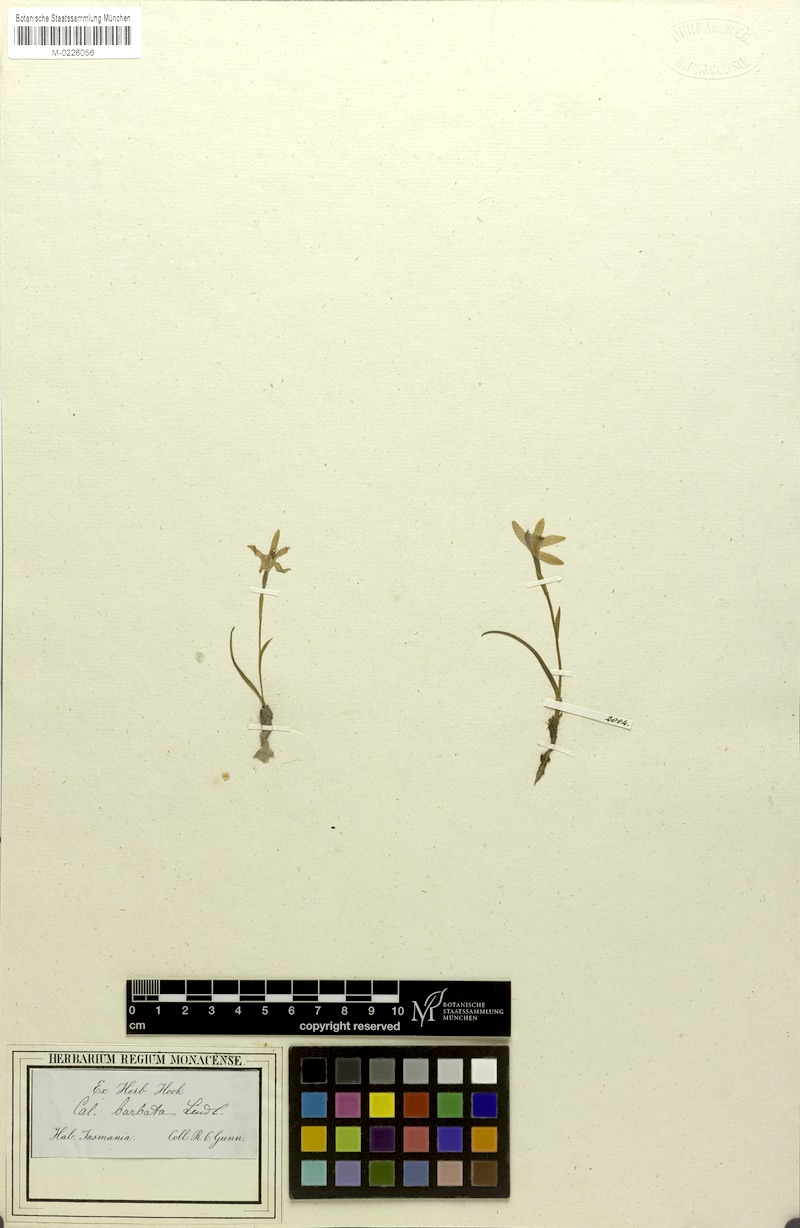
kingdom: Plantae
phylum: Tracheophyta
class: Liliopsida
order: Asparagales
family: Orchidaceae
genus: Pheladenia
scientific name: Pheladenia deformis
